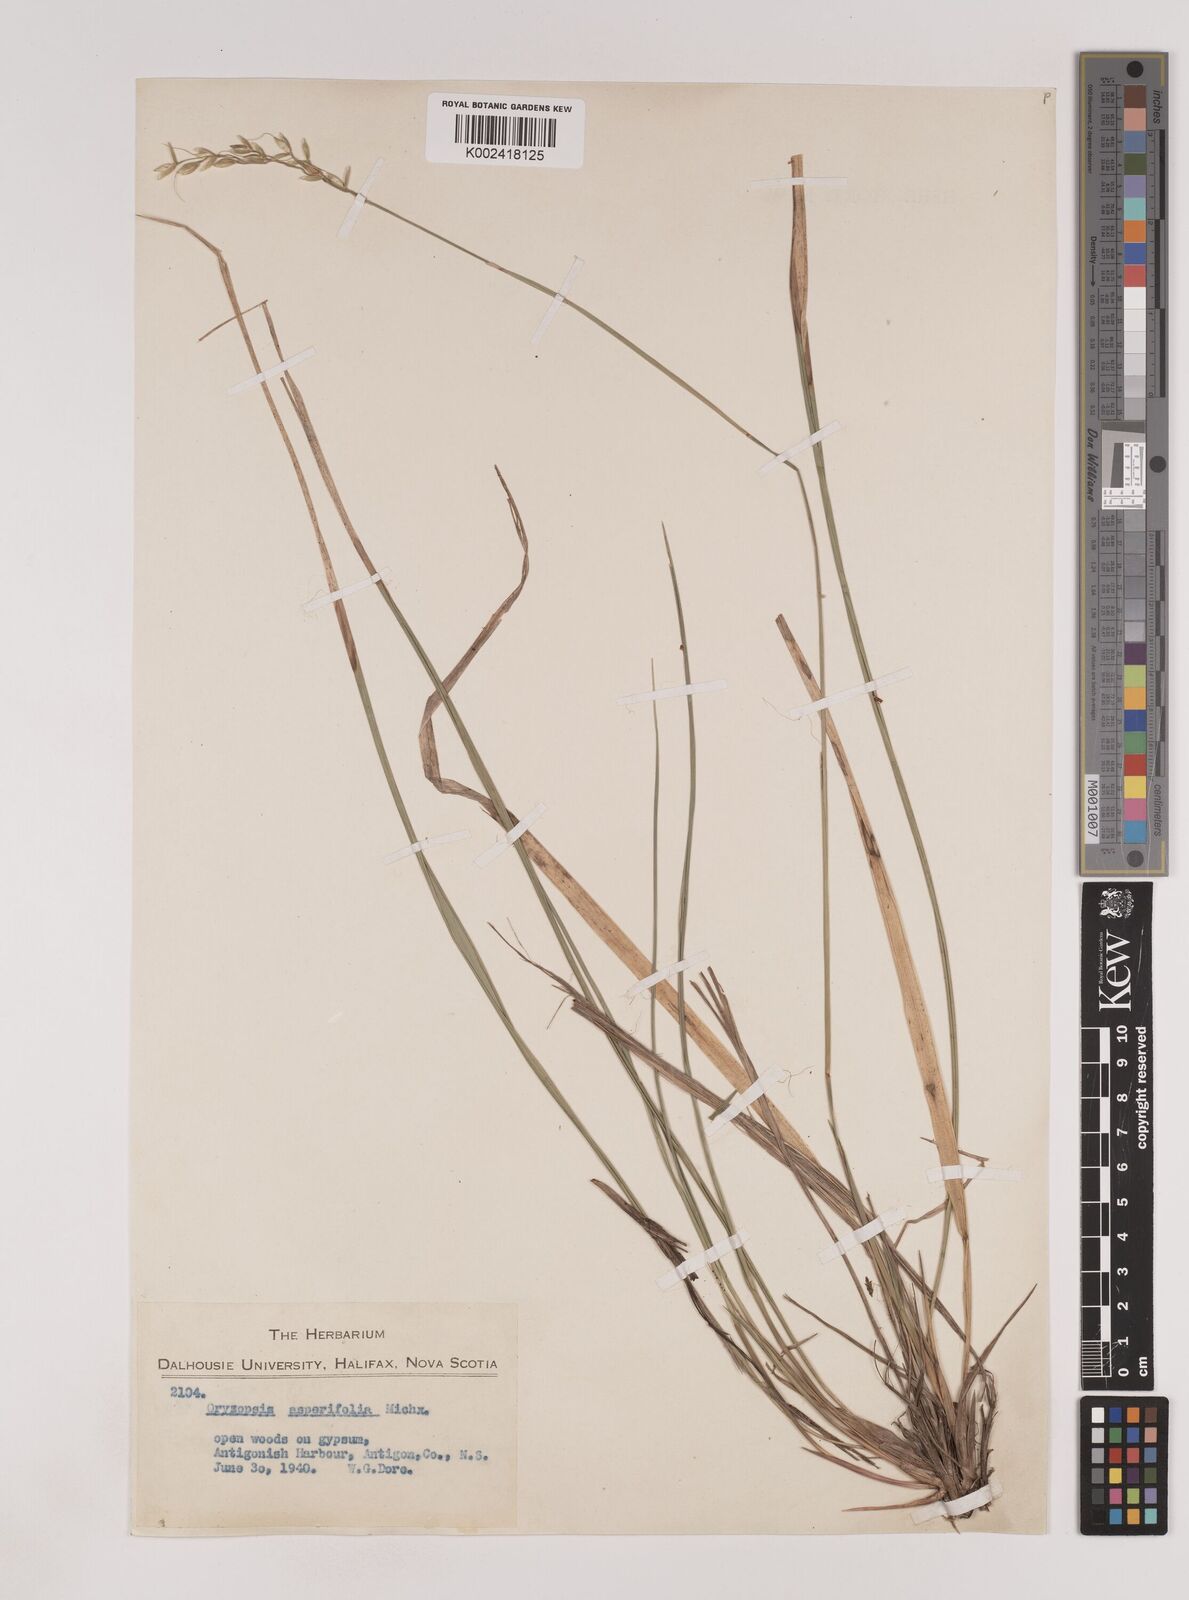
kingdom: Plantae
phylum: Tracheophyta
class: Liliopsida
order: Poales
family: Poaceae
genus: Oryzopsis
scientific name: Oryzopsis asperifolia
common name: Rough-leaved mountain rice
